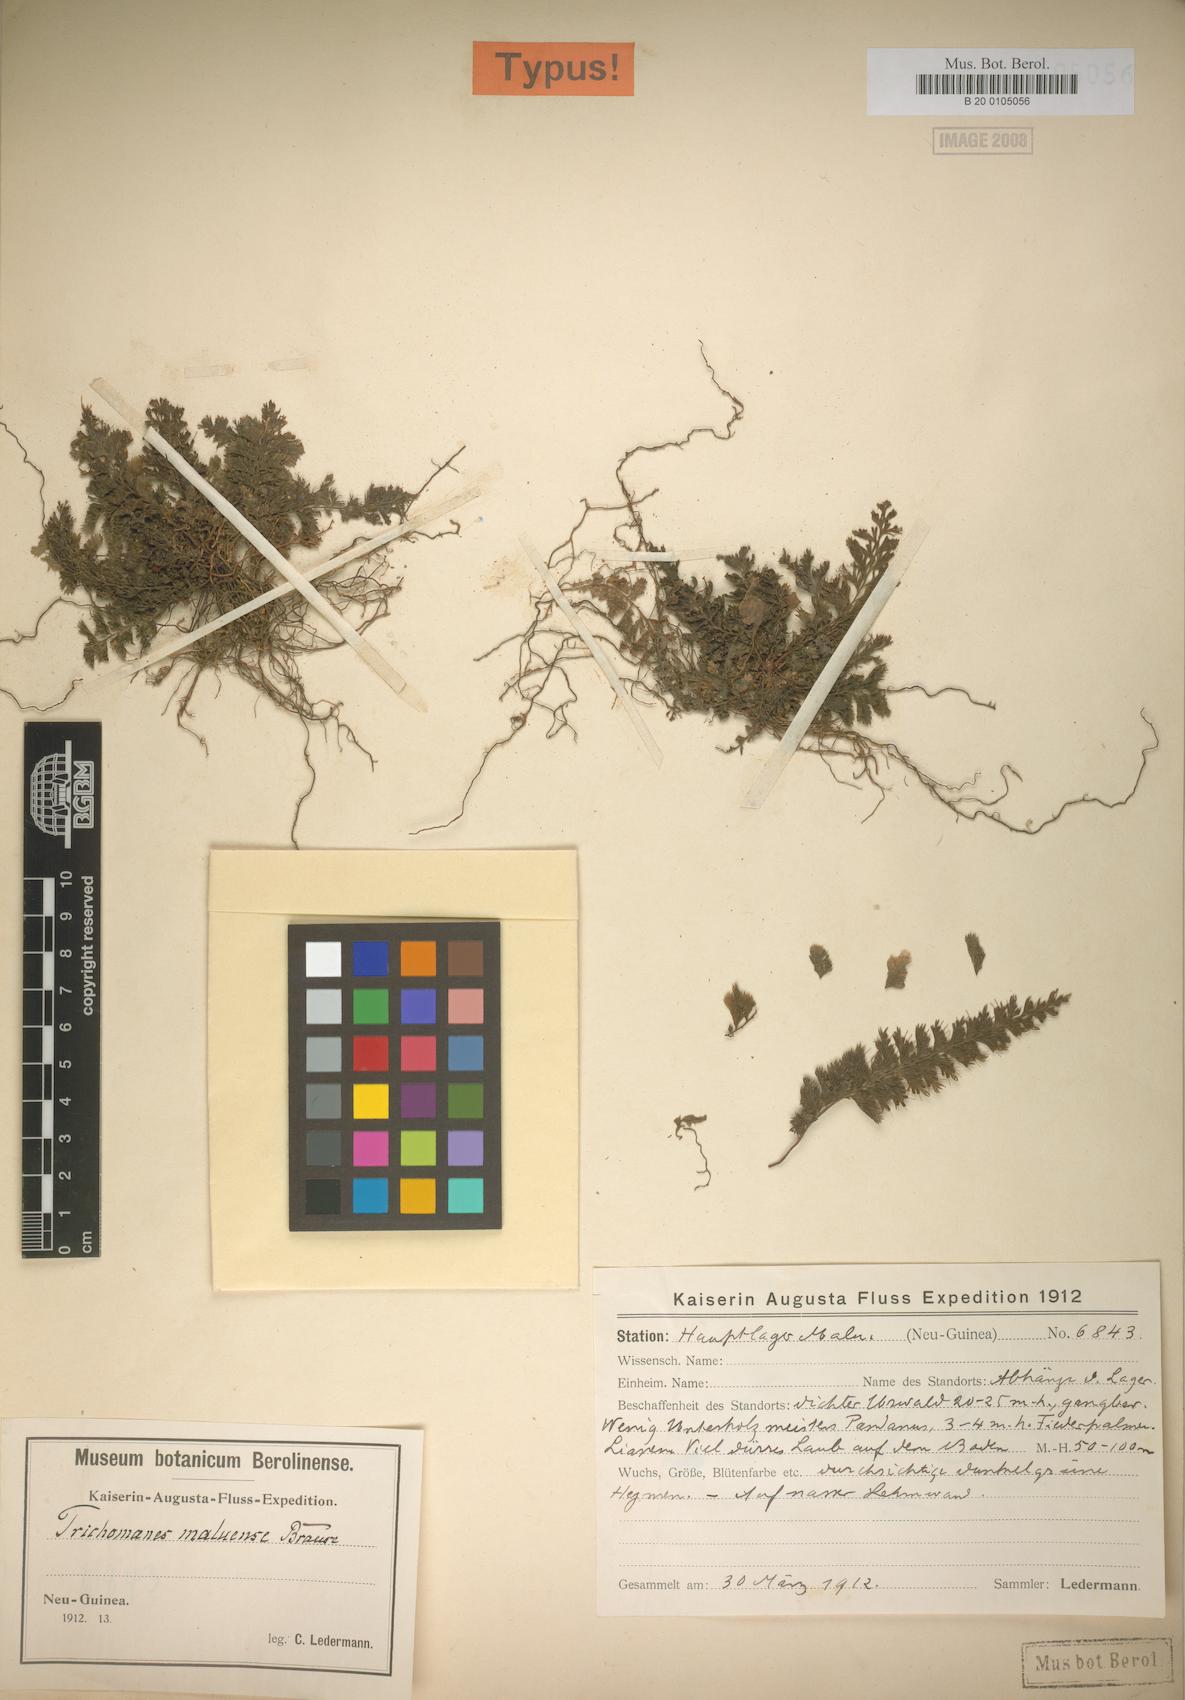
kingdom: Plantae
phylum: Tracheophyta
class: Polypodiopsida
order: Hymenophyllales
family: Hymenophyllaceae
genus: Cephalomanes
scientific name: Cephalomanes atrovirens
